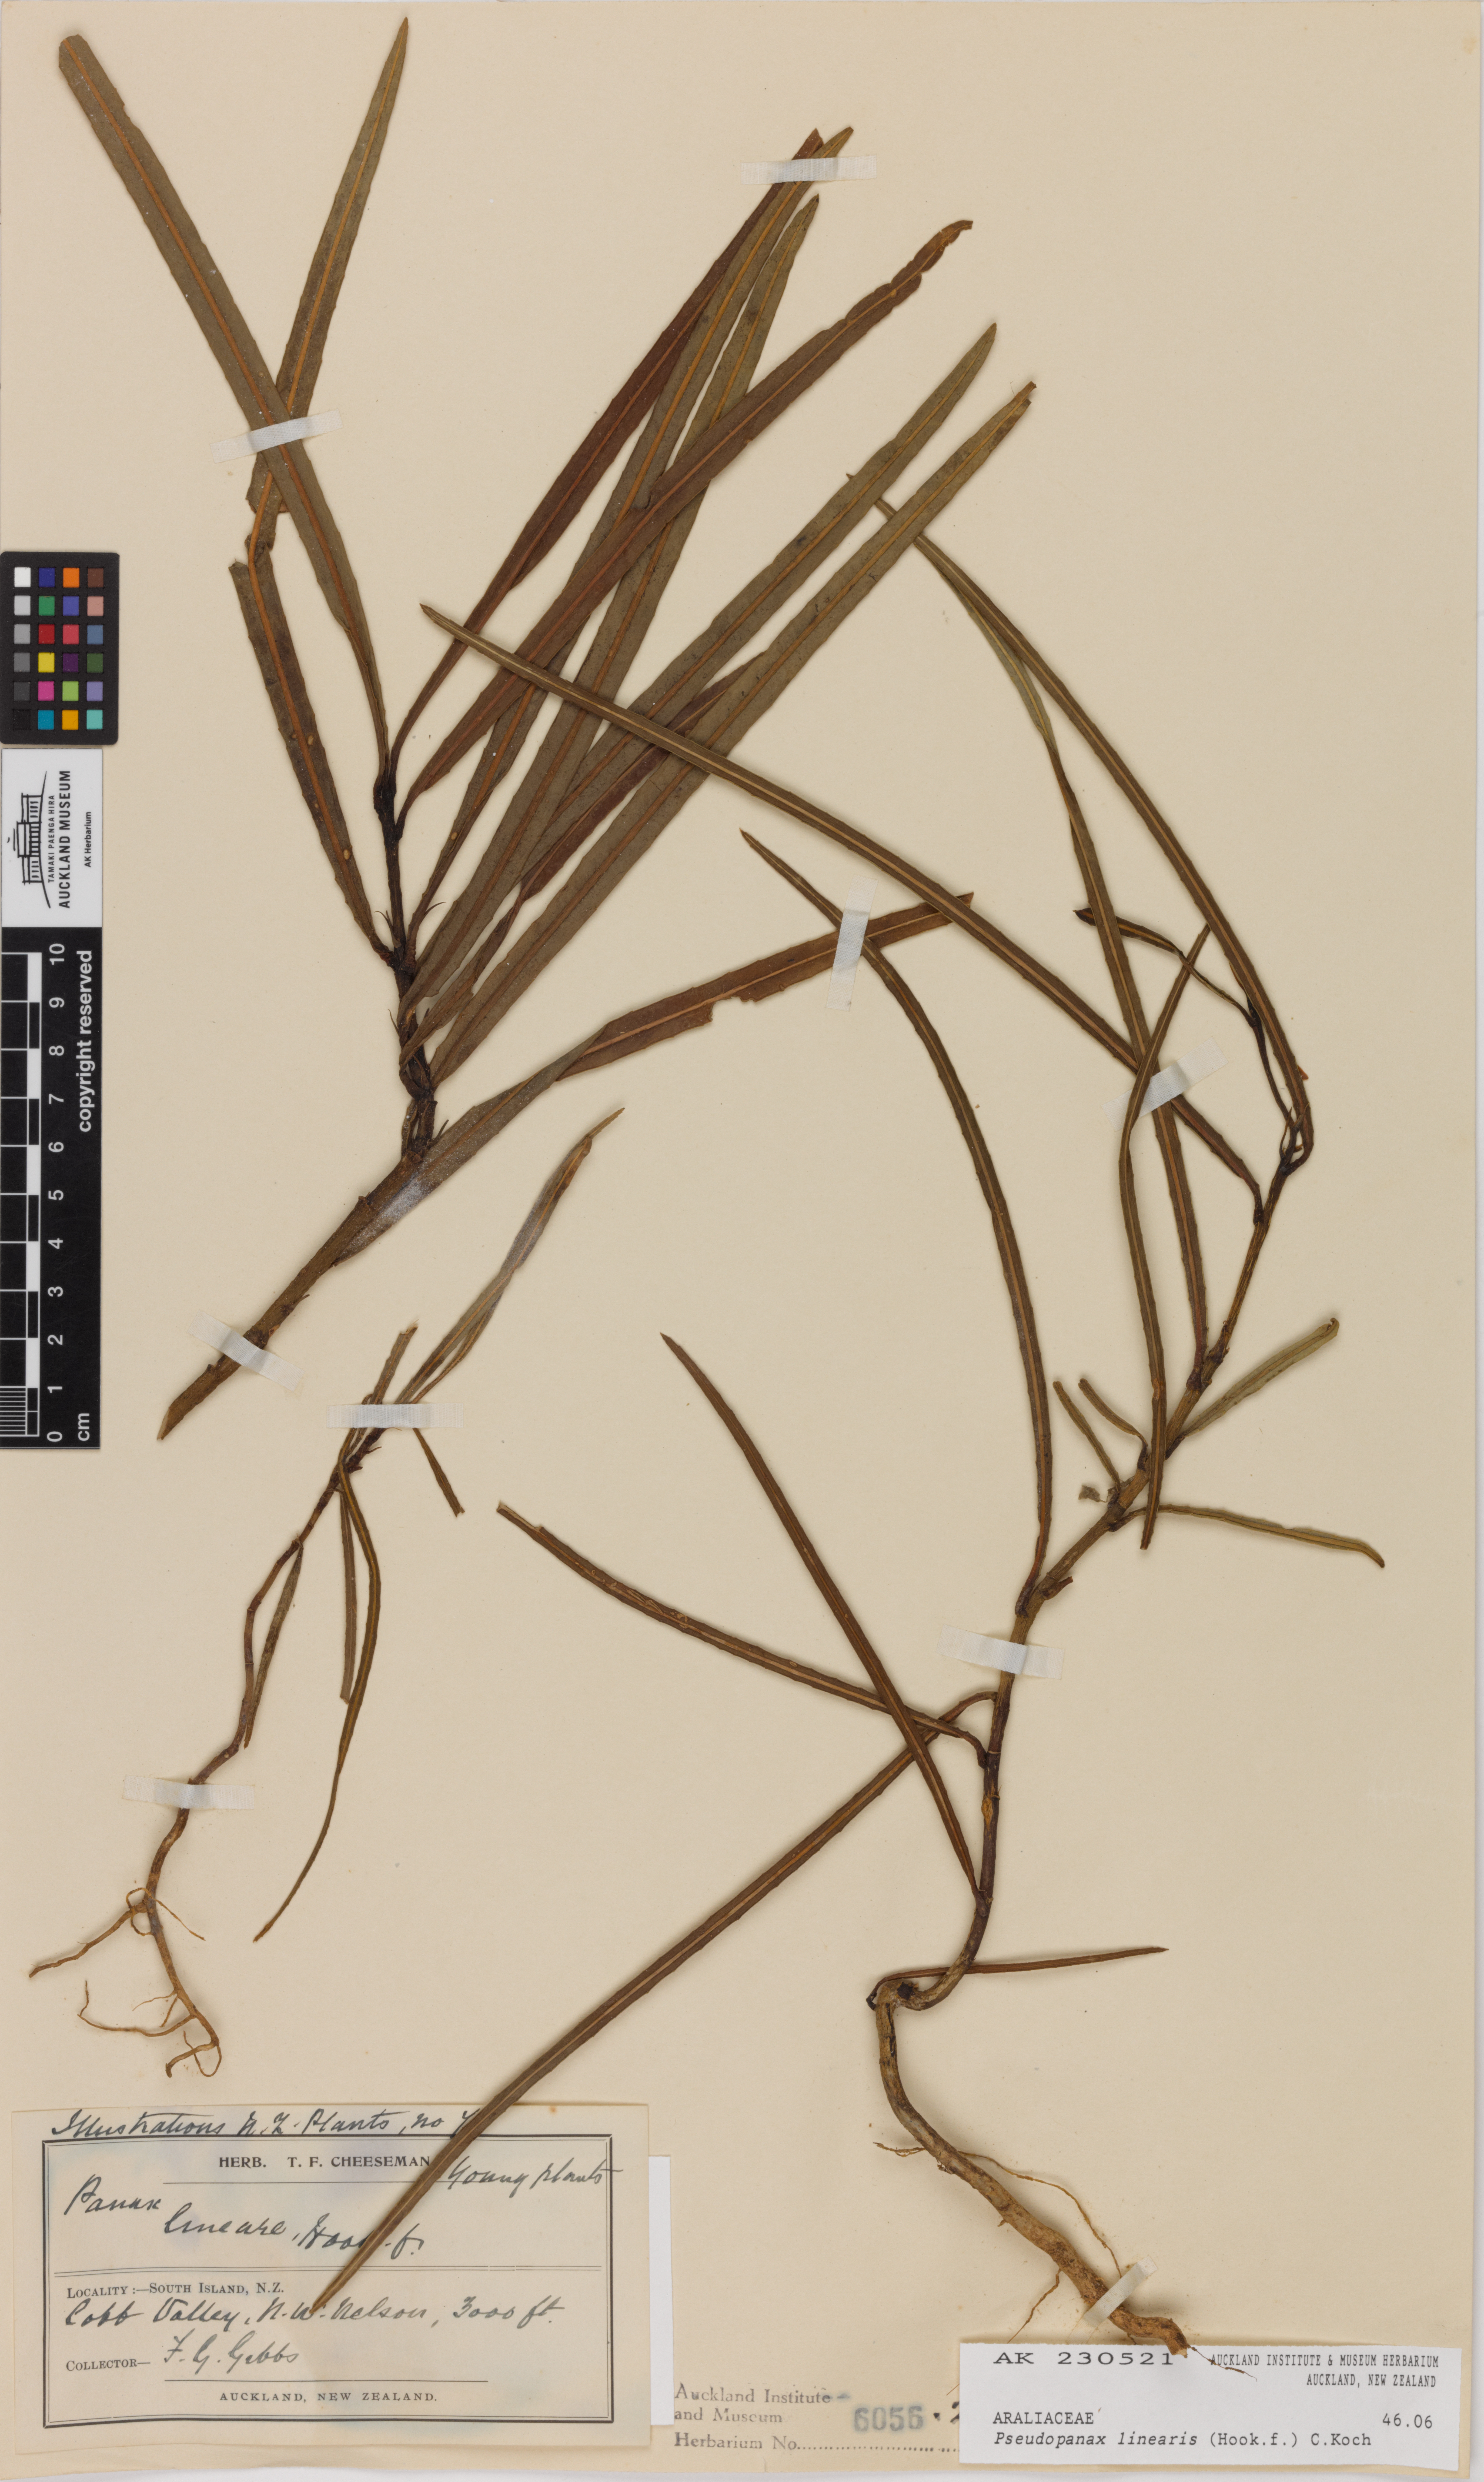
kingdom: Plantae
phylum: Tracheophyta
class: Magnoliopsida
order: Apiales
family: Araliaceae
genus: Pseudopanax
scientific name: Pseudopanax linearis
